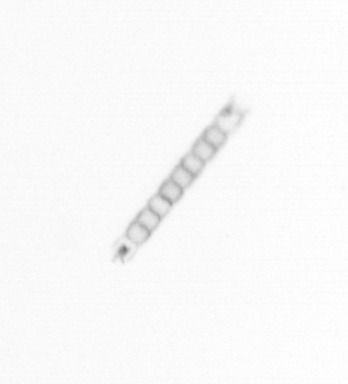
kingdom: Chromista
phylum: Ochrophyta
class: Bacillariophyceae
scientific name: Bacillariophyceae
